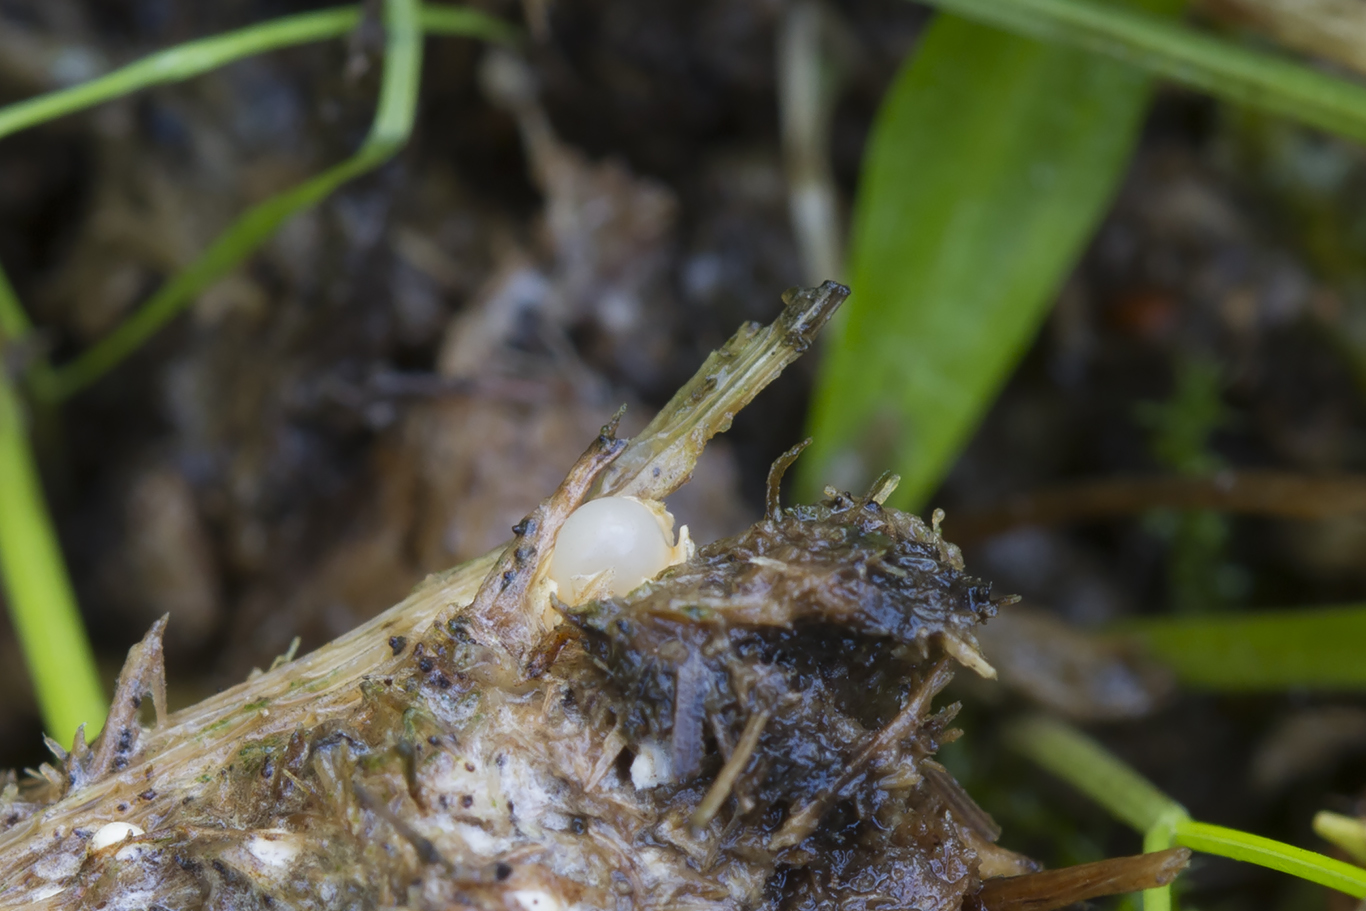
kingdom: Fungi
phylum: Basidiomycota
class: Agaricomycetes
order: Geastrales
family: Geastraceae
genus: Sphaerobolus
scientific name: Sphaerobolus stellatus
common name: bombekaster
